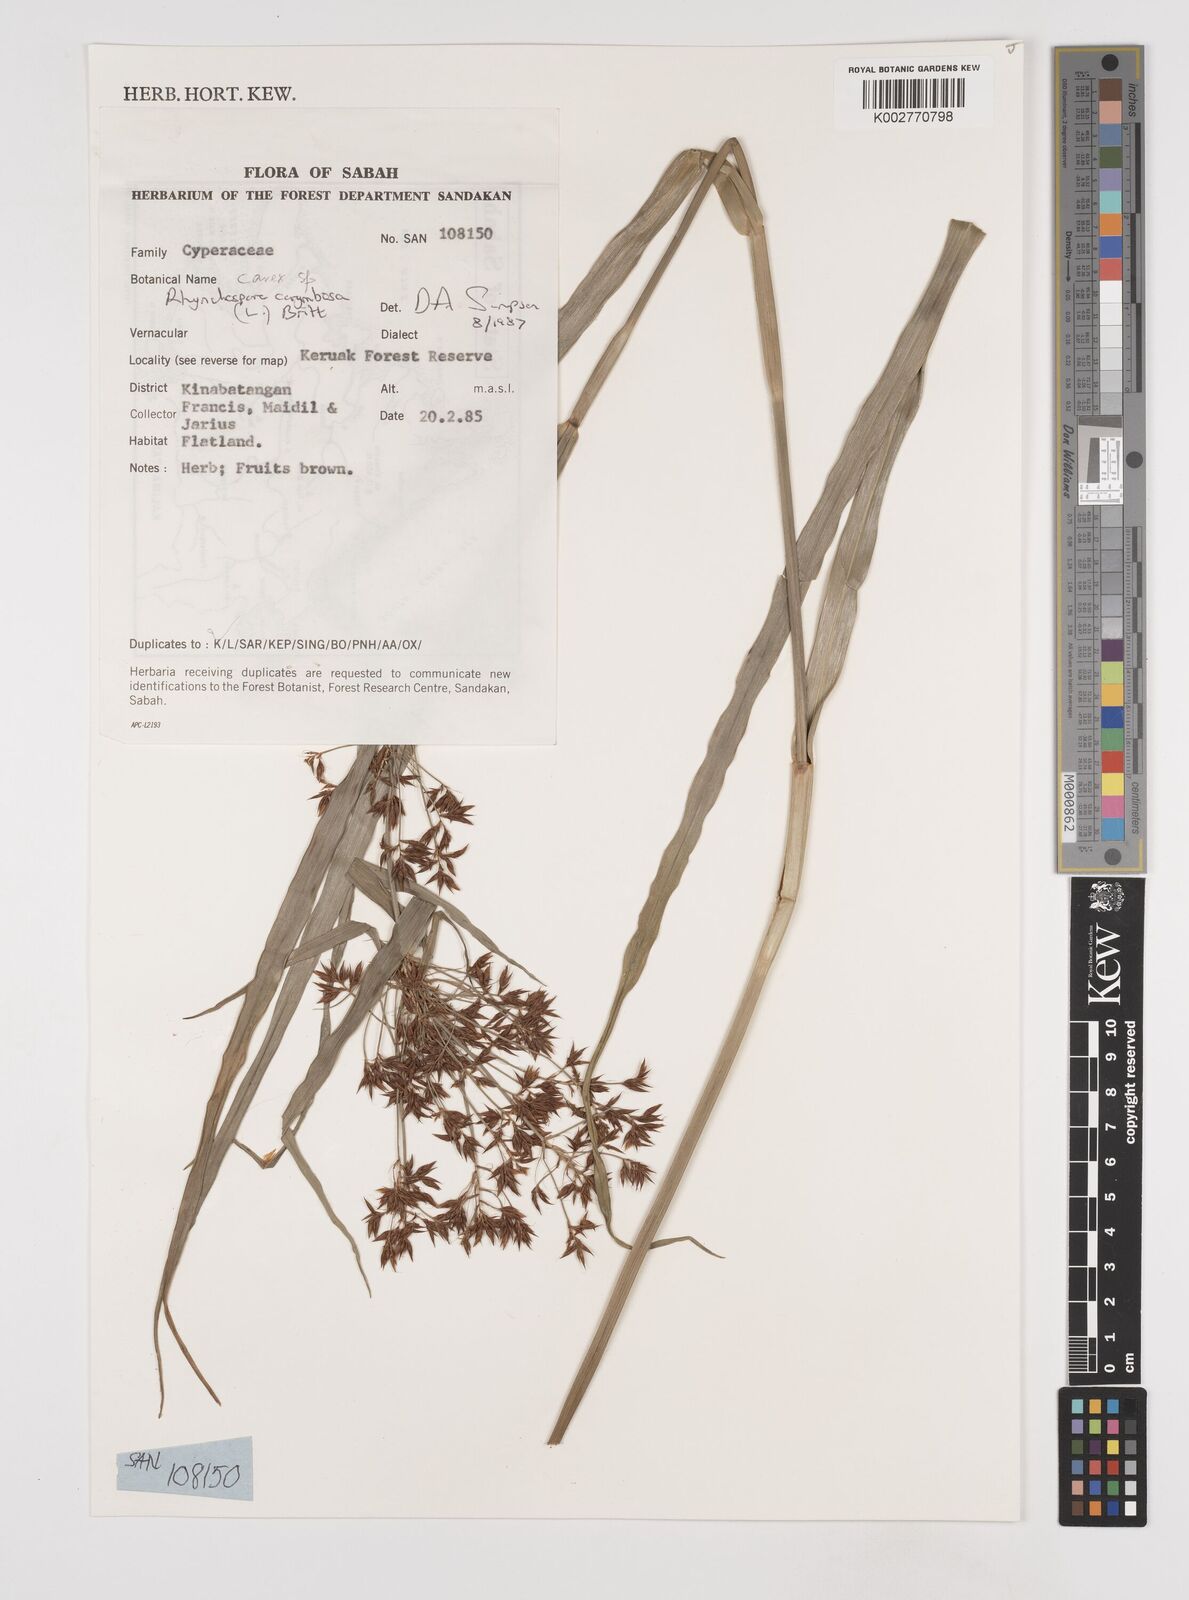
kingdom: Plantae
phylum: Tracheophyta
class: Liliopsida
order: Poales
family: Cyperaceae
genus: Rhynchospora
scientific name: Rhynchospora corymbosa
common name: Golden beak sedge
